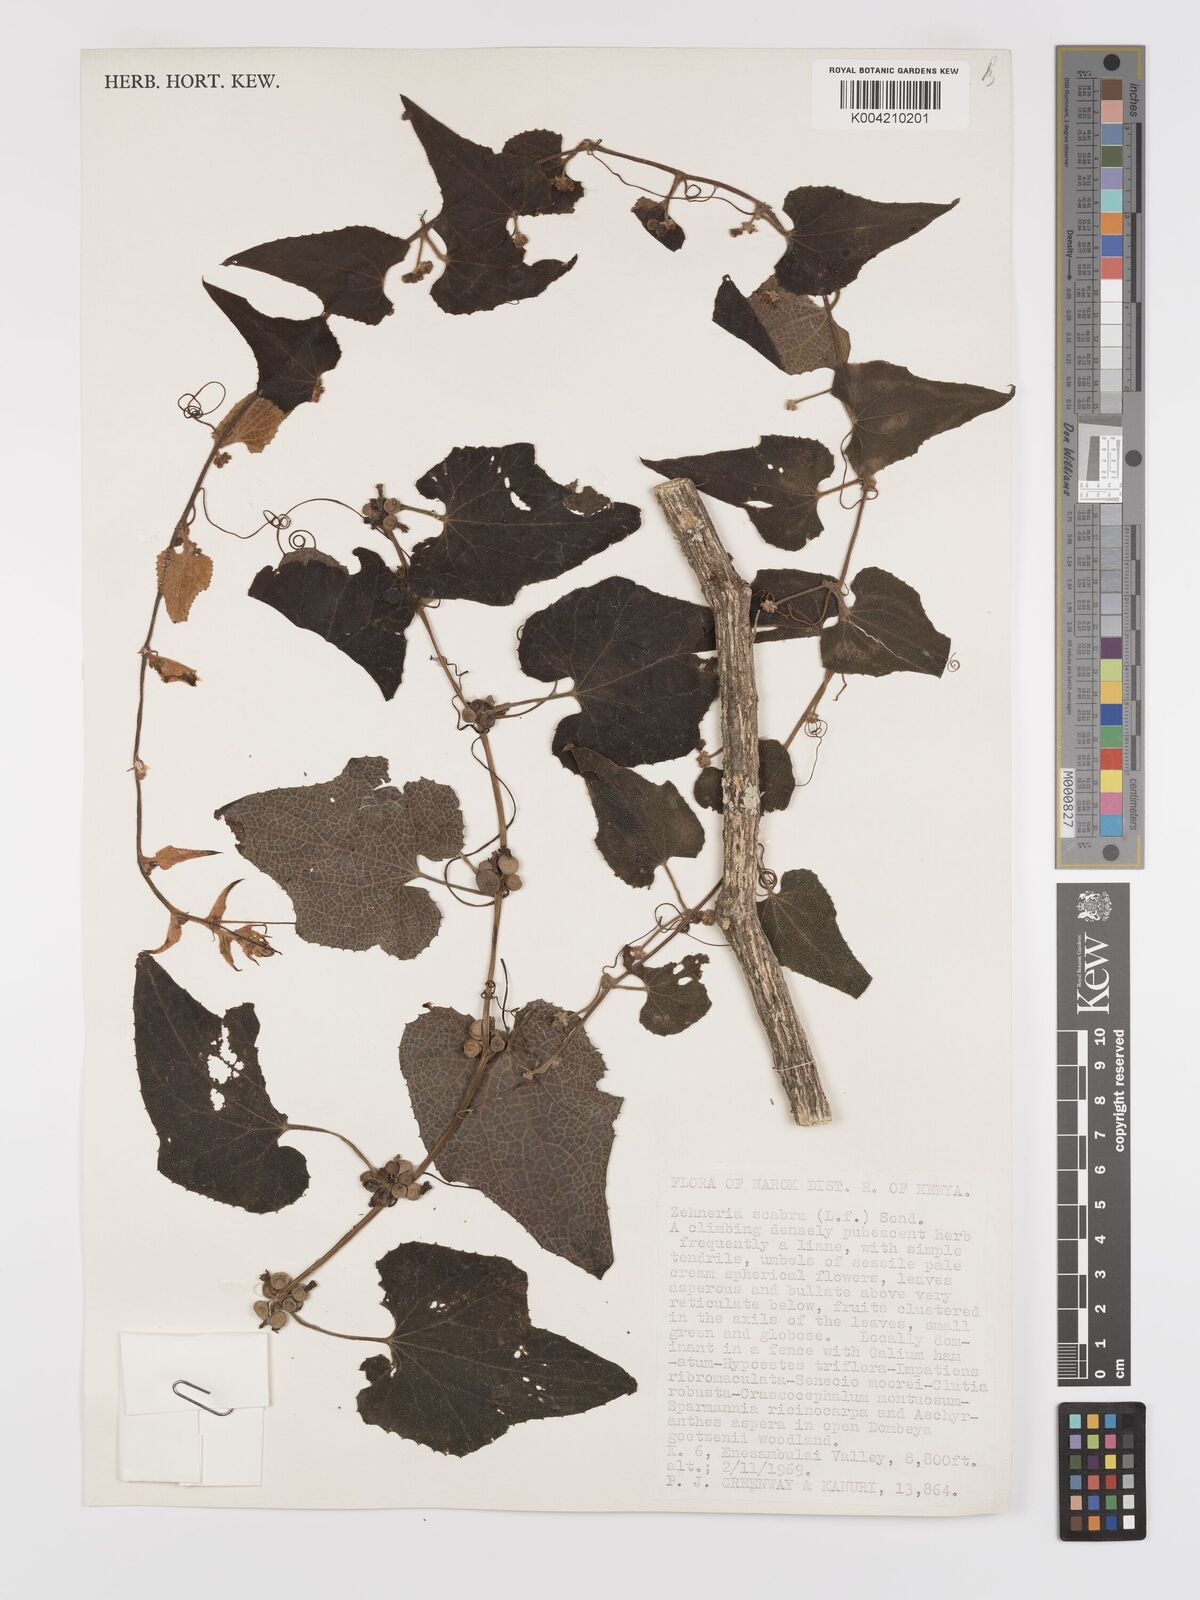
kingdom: Plantae
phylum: Tracheophyta
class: Magnoliopsida
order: Cucurbitales
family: Cucurbitaceae
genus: Zehneria
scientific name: Zehneria scabra
